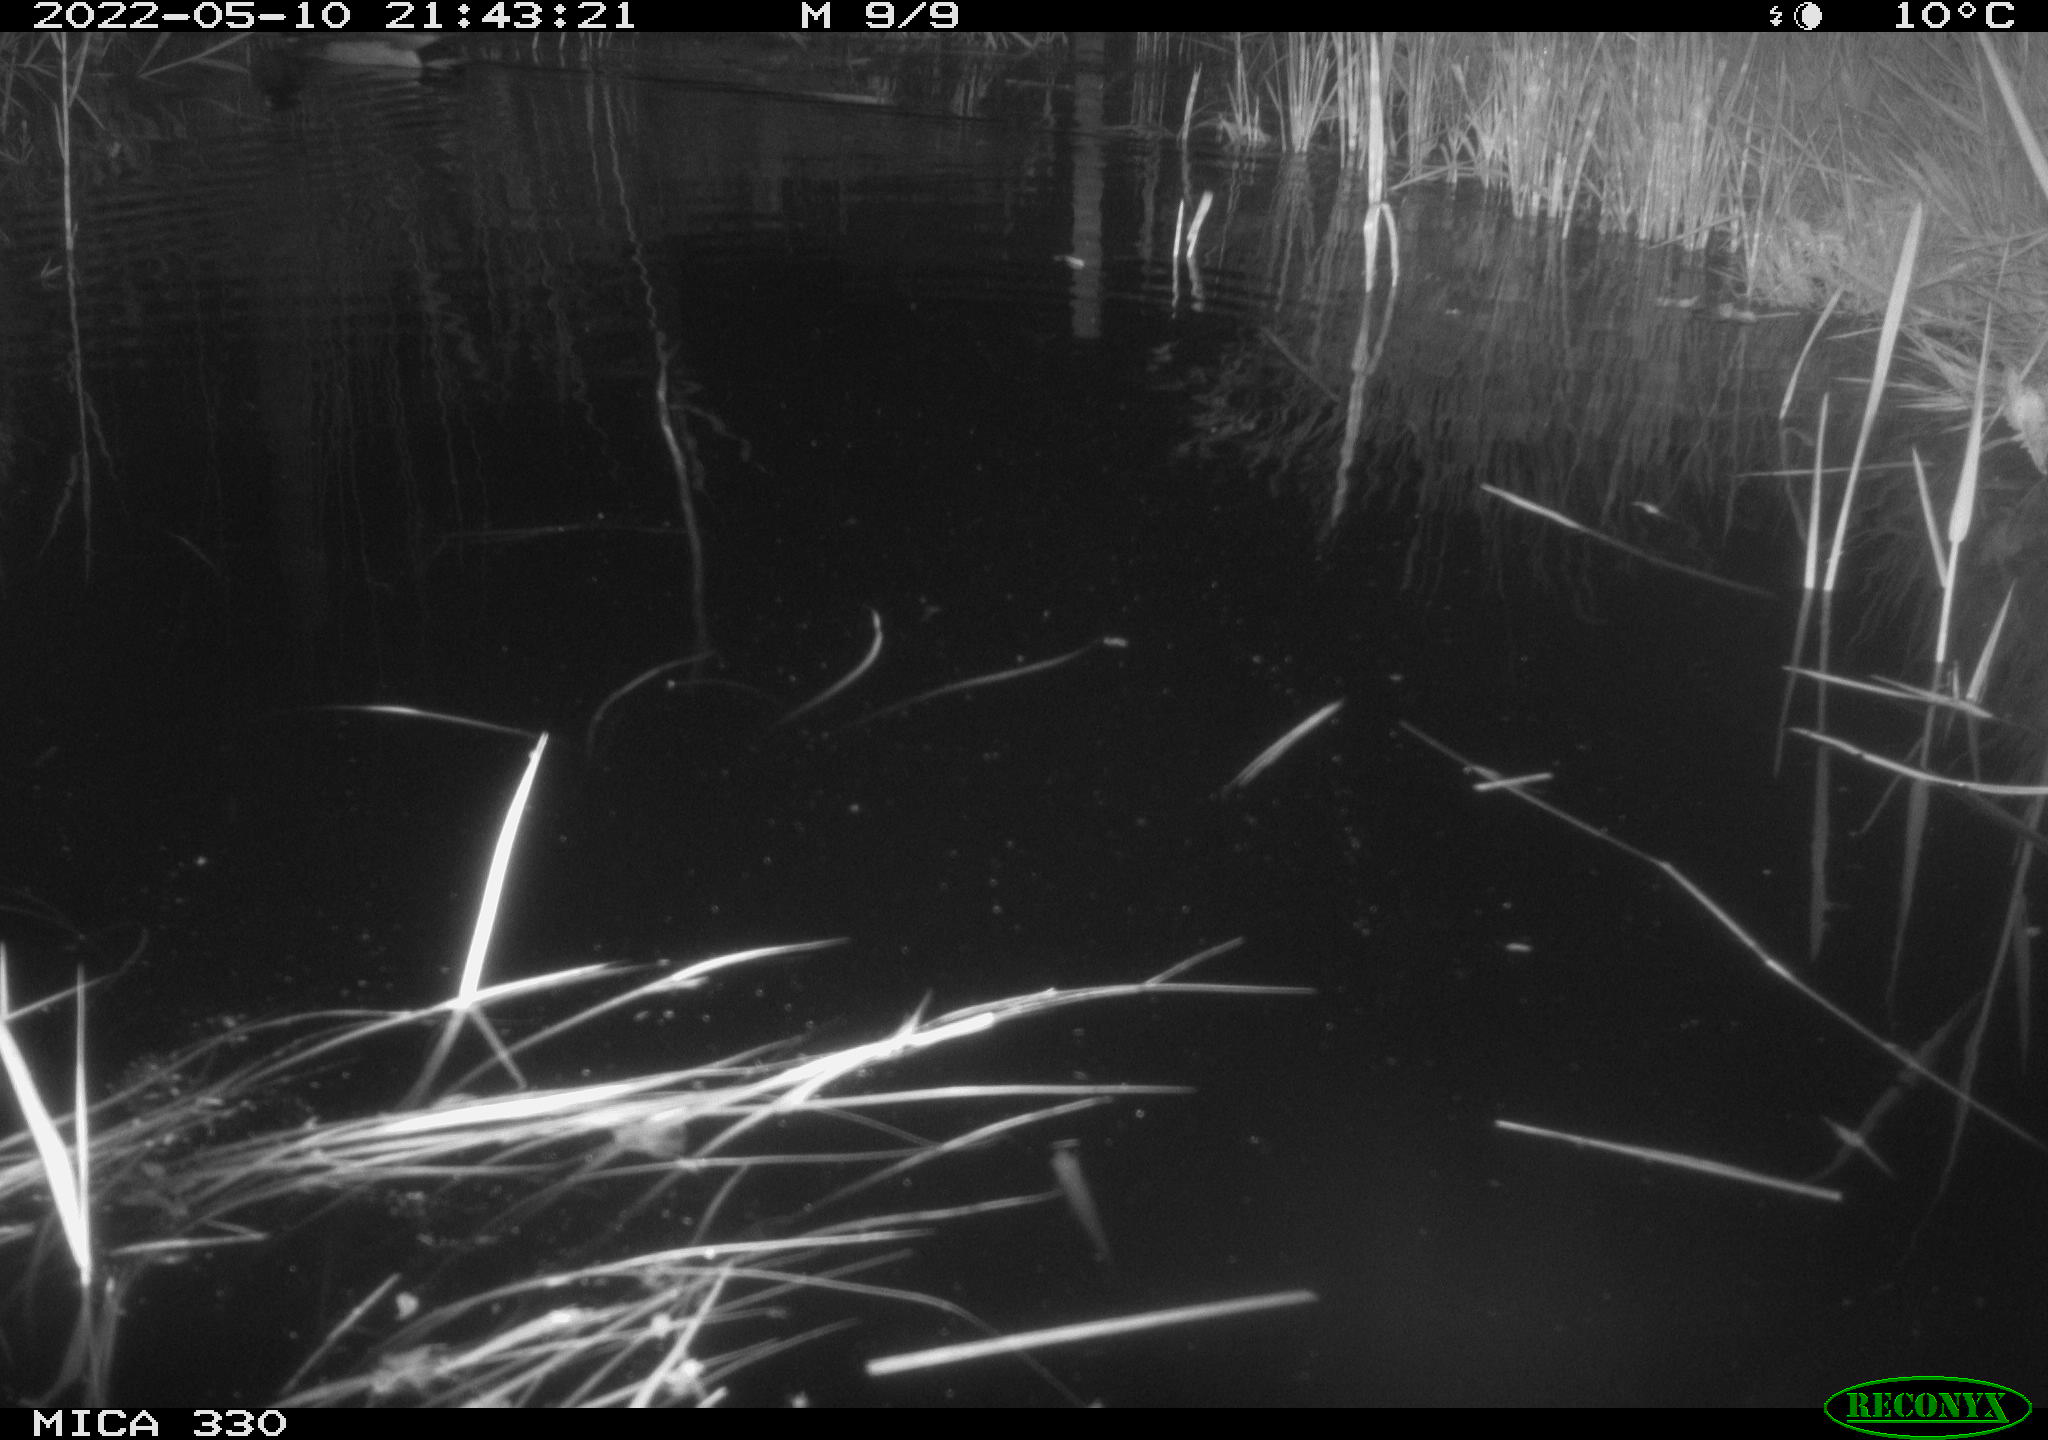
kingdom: Animalia
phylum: Chordata
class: Aves
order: Anseriformes
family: Anatidae
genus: Anas
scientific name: Anas platyrhynchos
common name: Mallard
